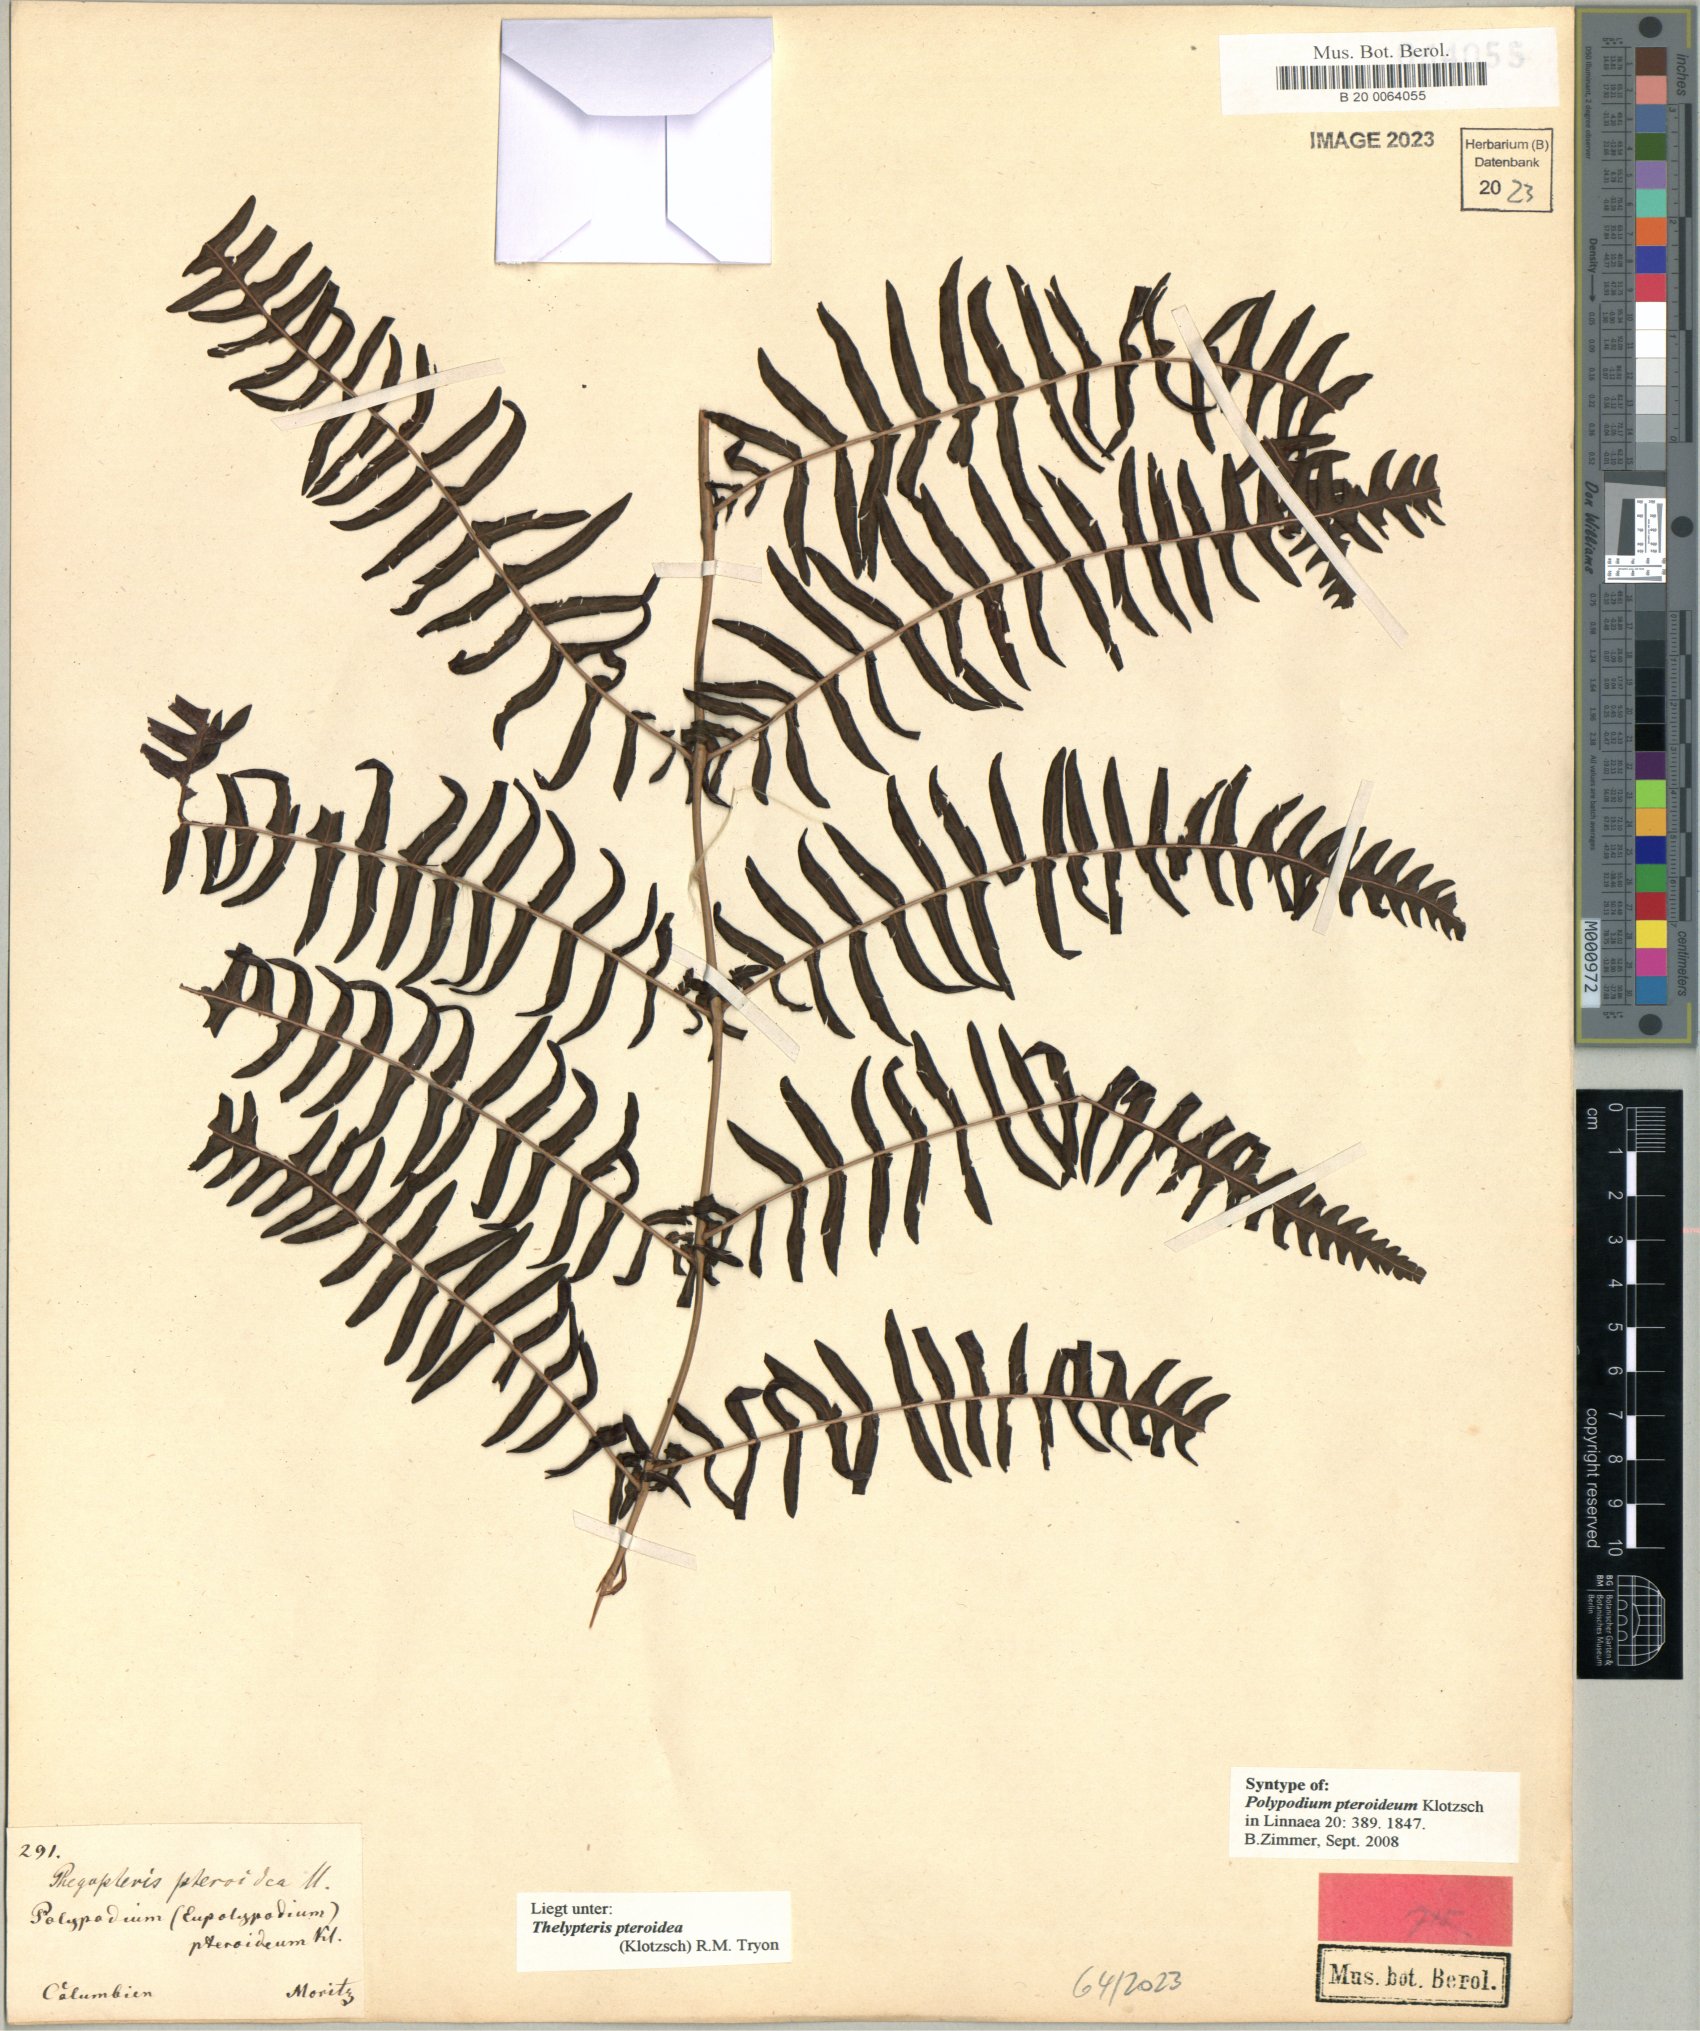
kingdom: Plantae
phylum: Tracheophyta
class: Polypodiopsida
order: Polypodiales
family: Thelypteridaceae
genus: Amauropelta
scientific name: Amauropelta pteroidea
